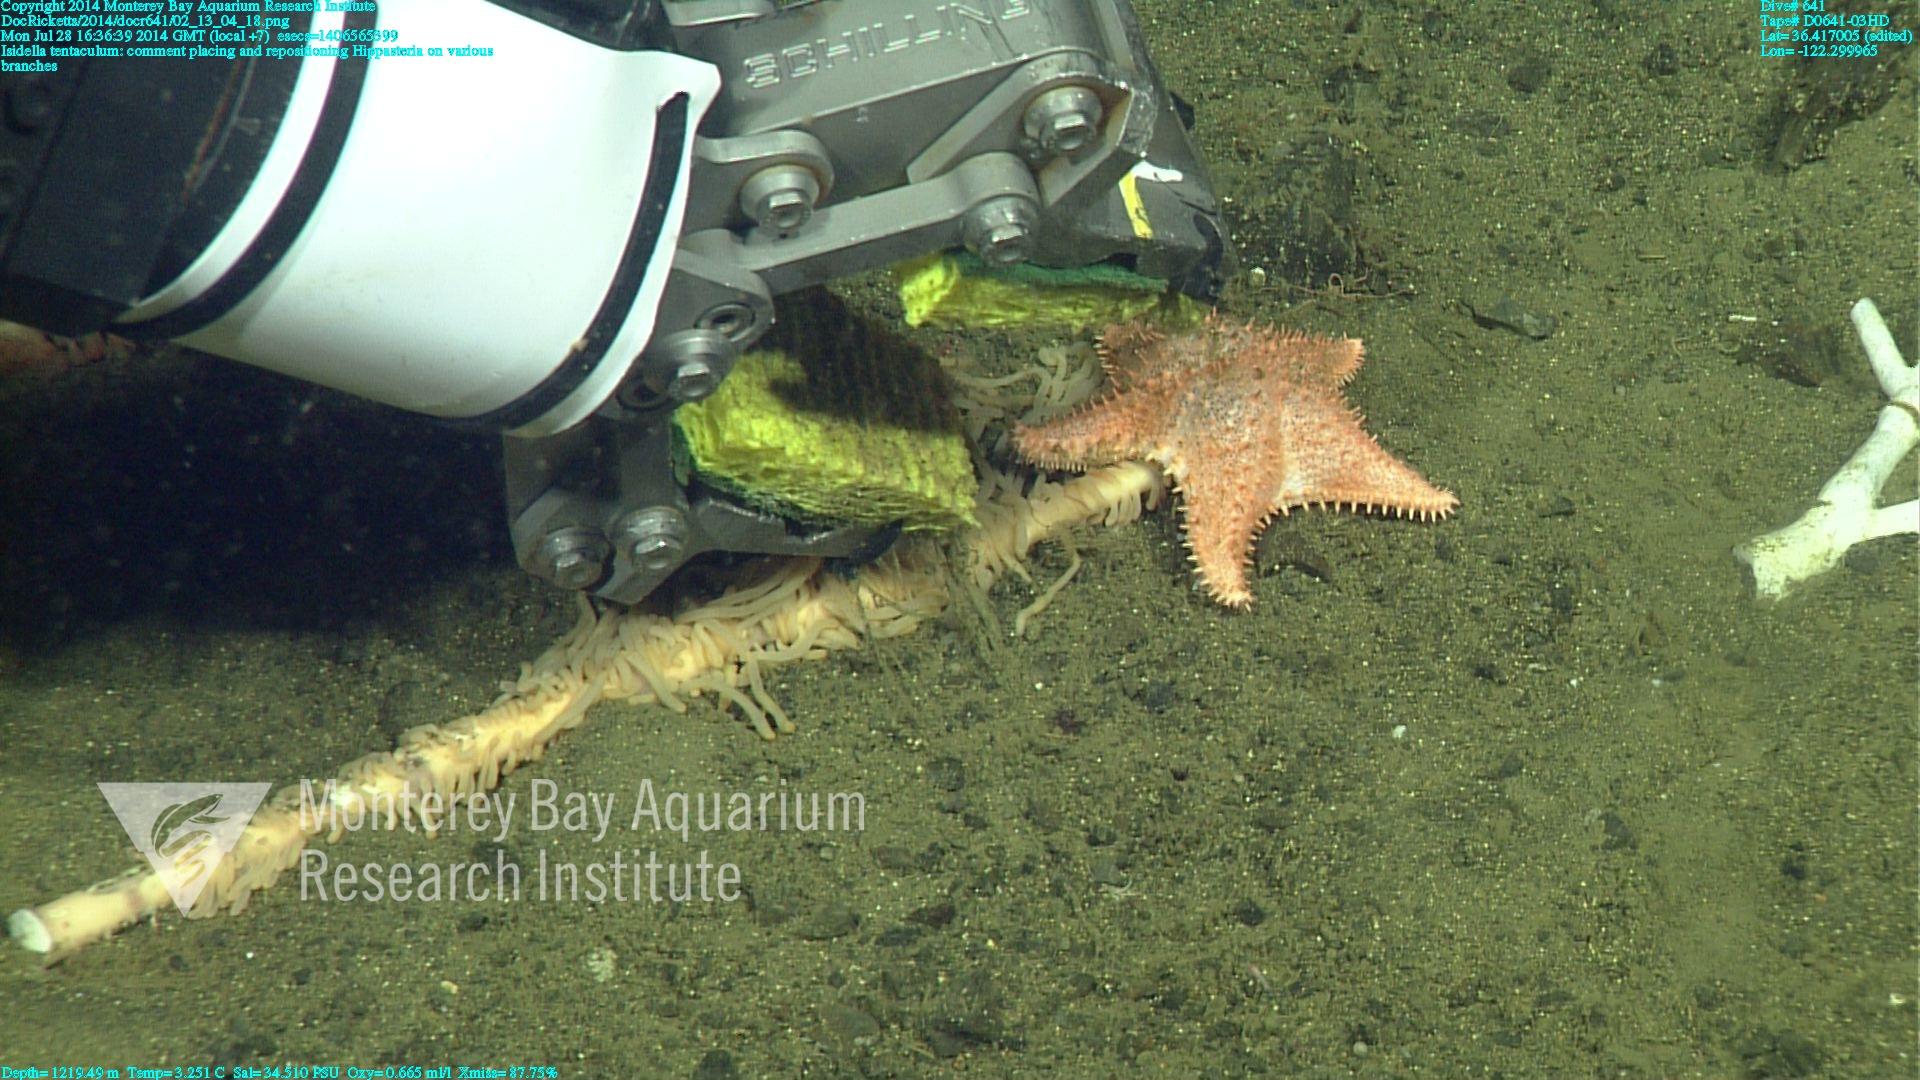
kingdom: Animalia
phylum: Cnidaria
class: Anthozoa
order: Scleralcyonacea
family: Keratoisididae
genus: Isidella
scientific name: Isidella tentaculum
